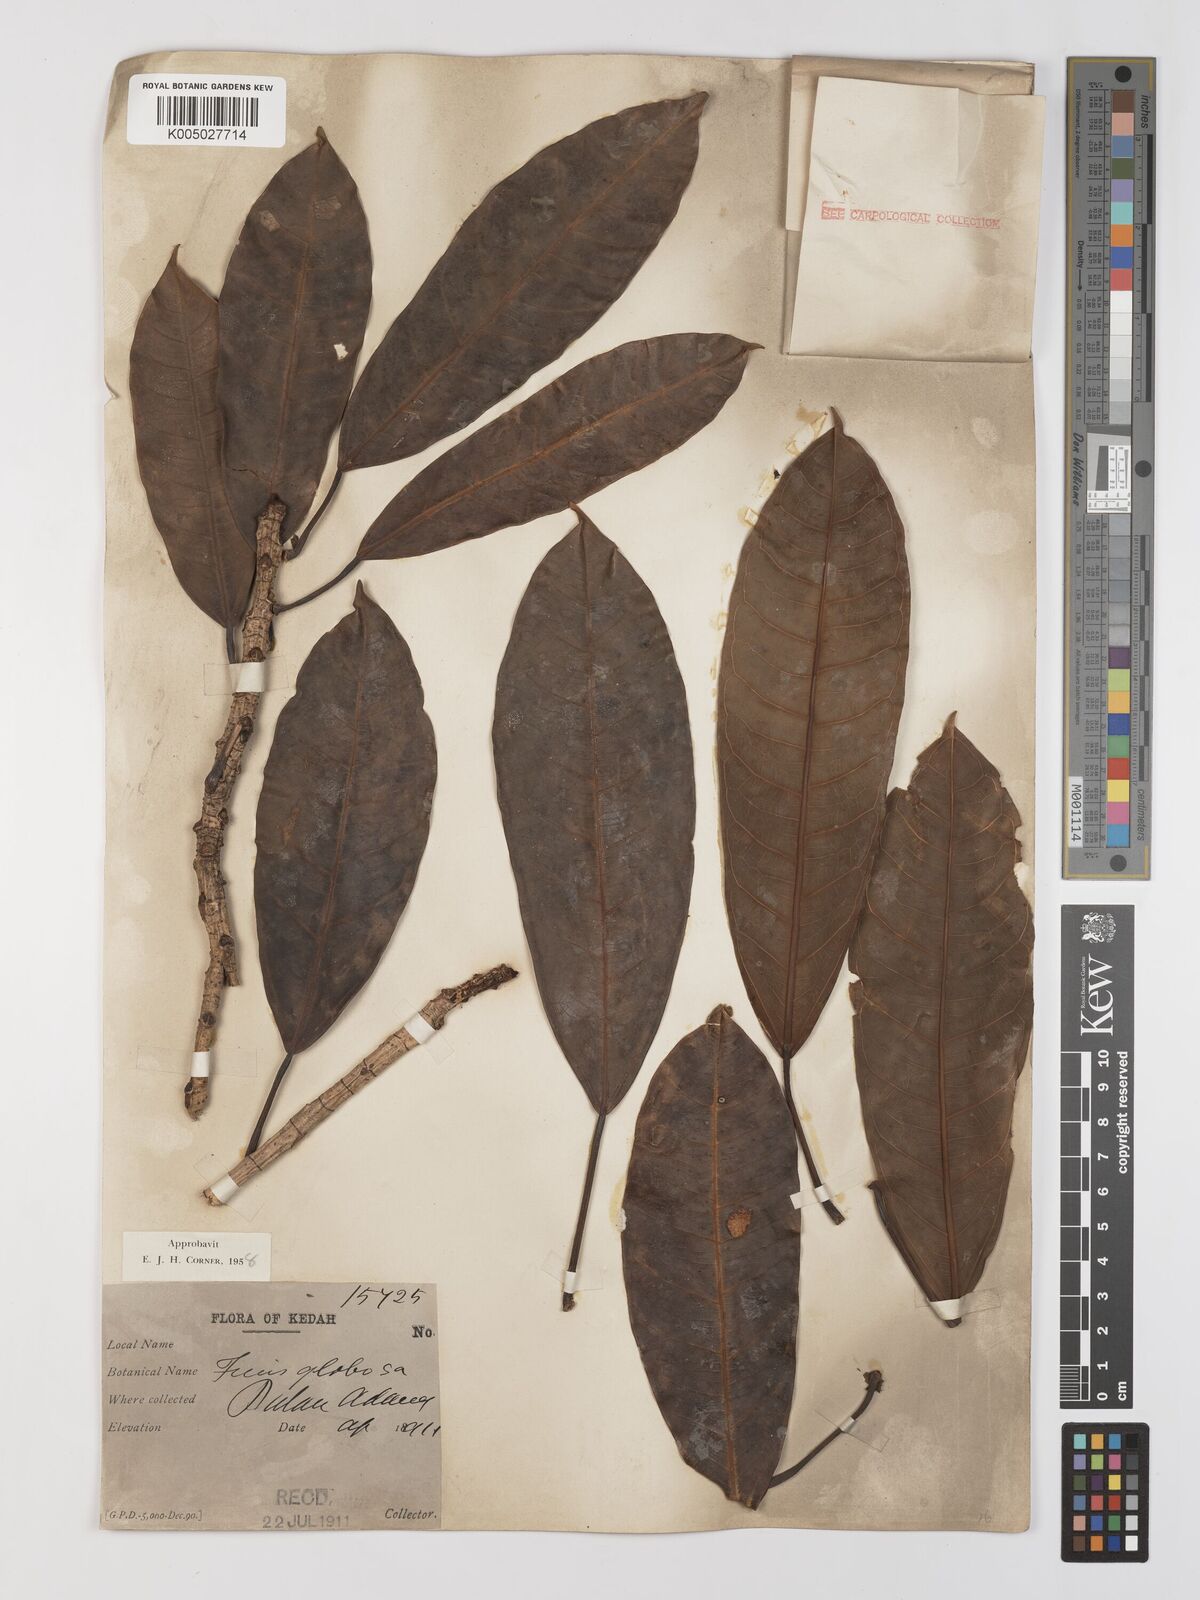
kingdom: Plantae
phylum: Tracheophyta
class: Magnoliopsida
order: Rosales
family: Moraceae
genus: Ficus
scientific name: Ficus
